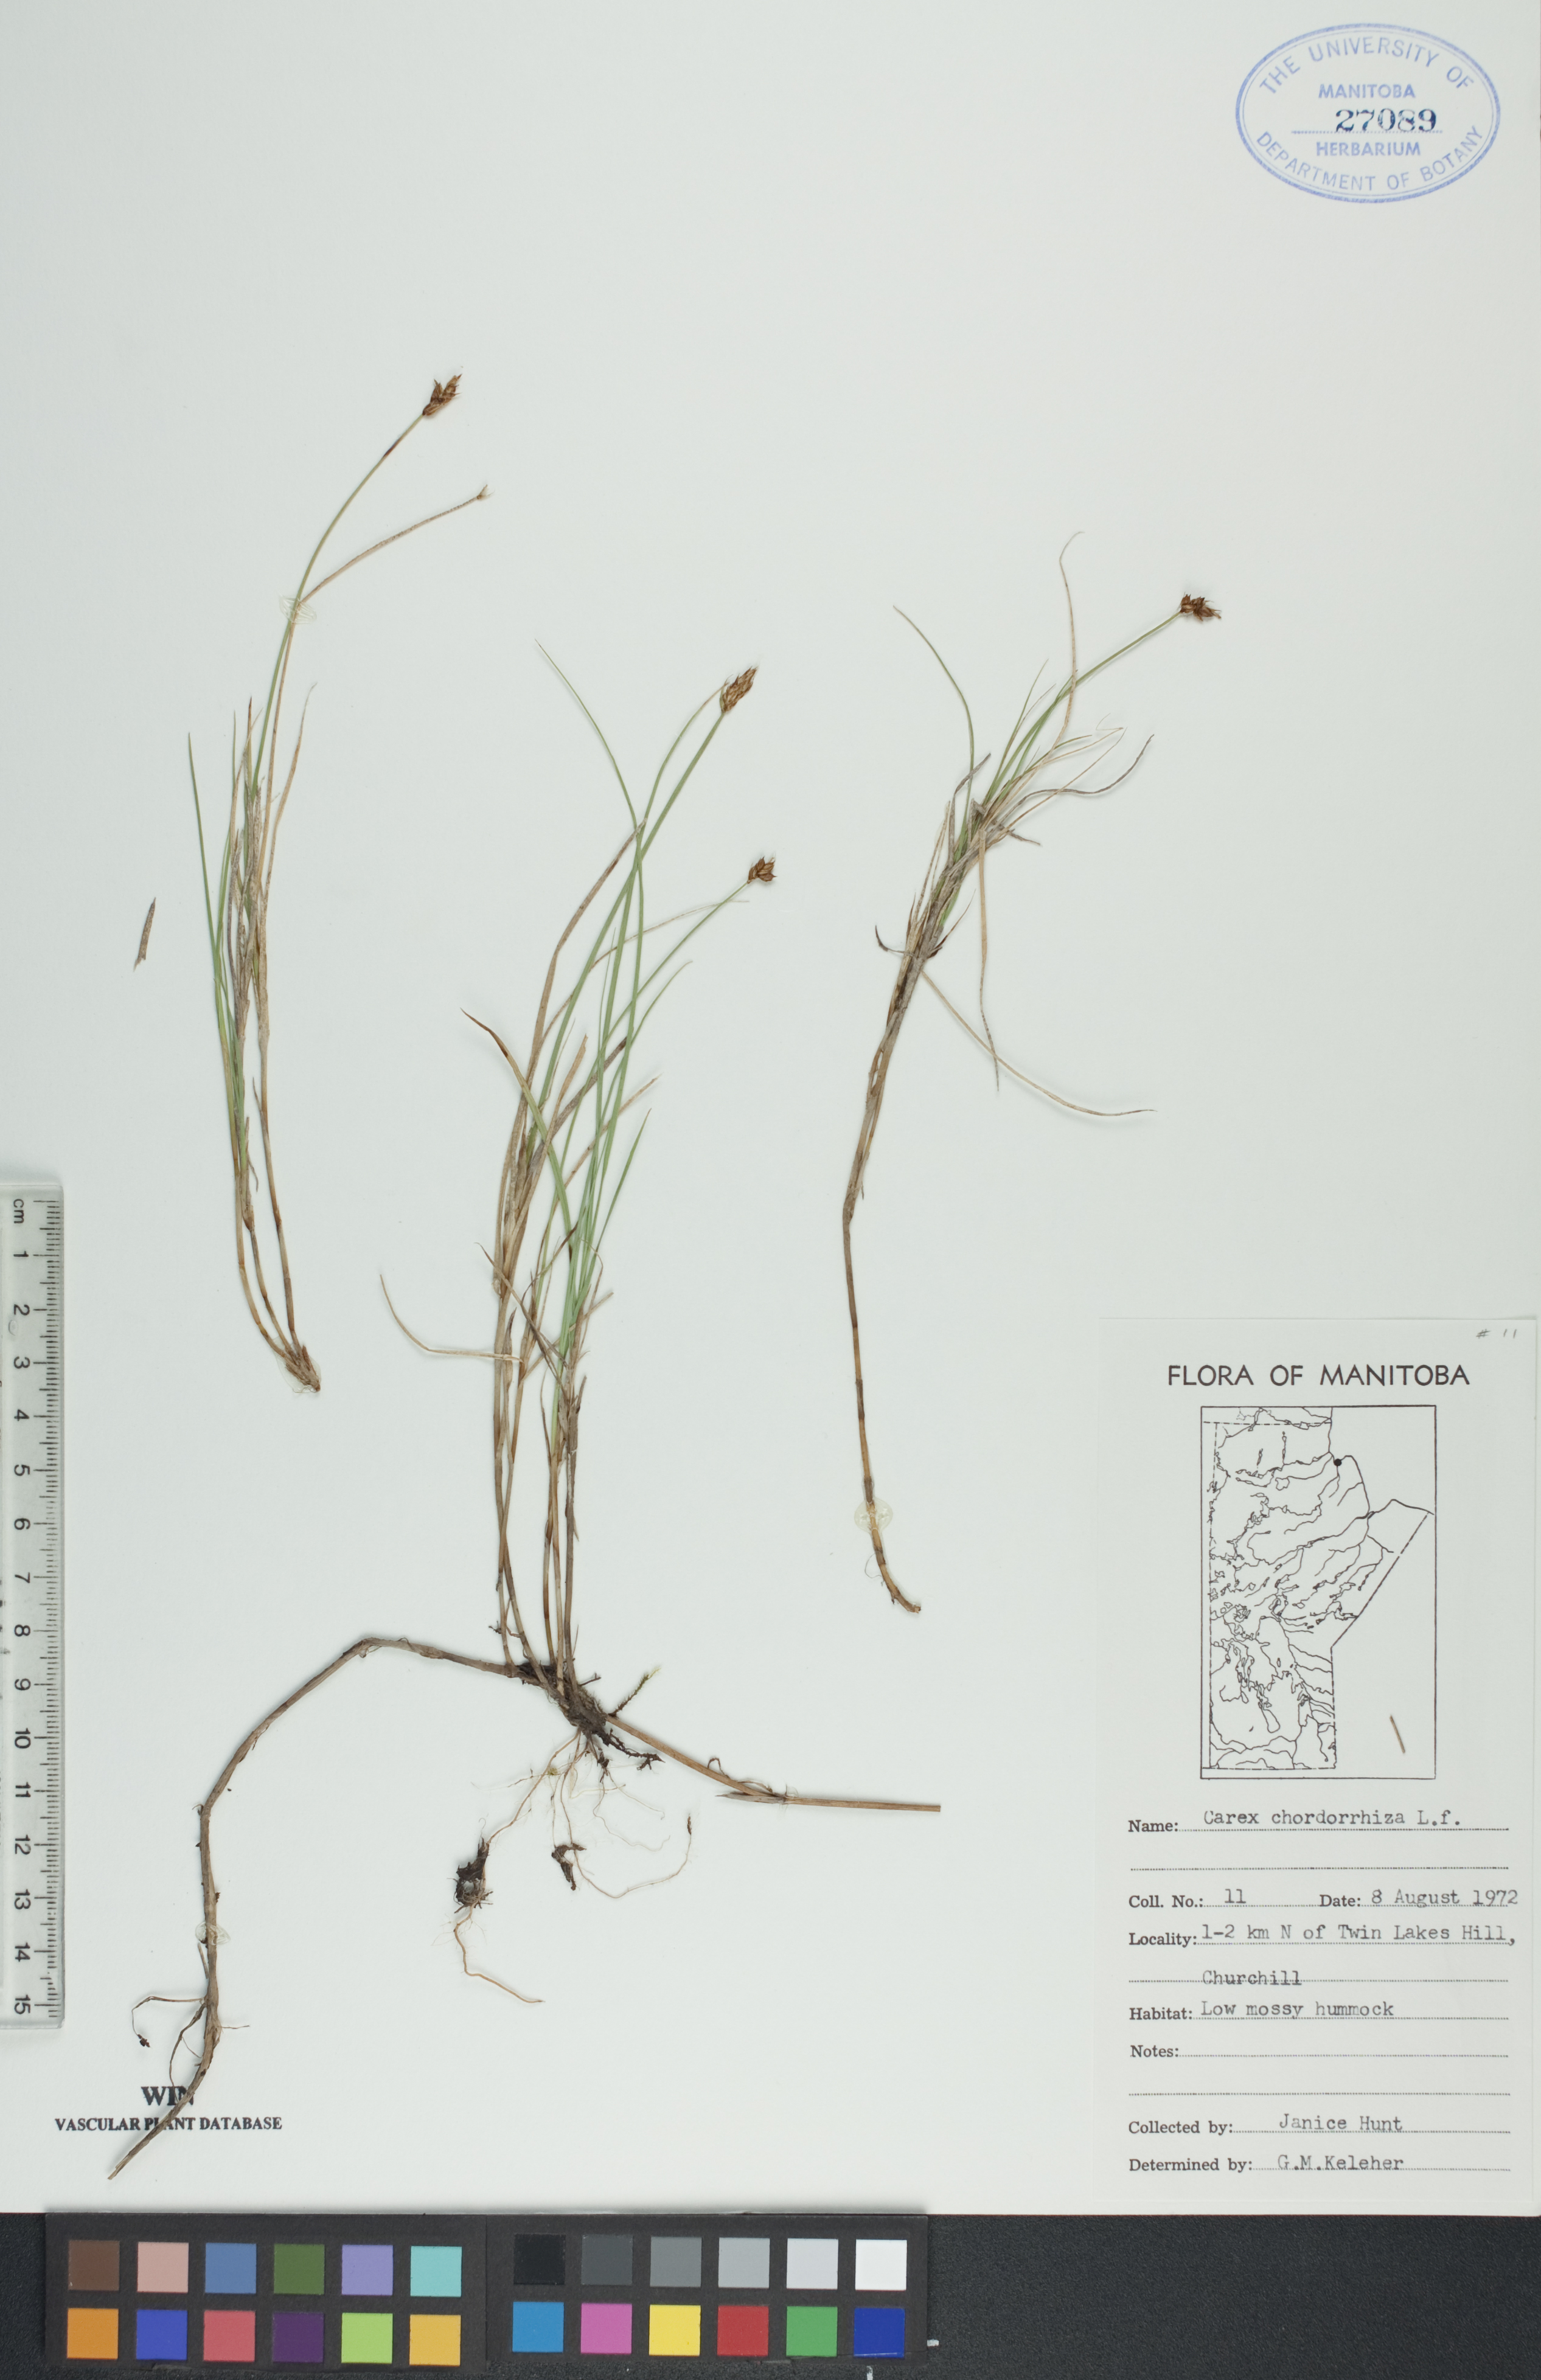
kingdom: Plantae
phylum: Tracheophyta
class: Liliopsida
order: Poales
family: Cyperaceae
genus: Carex
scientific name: Carex chordorrhiza
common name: String sedge
